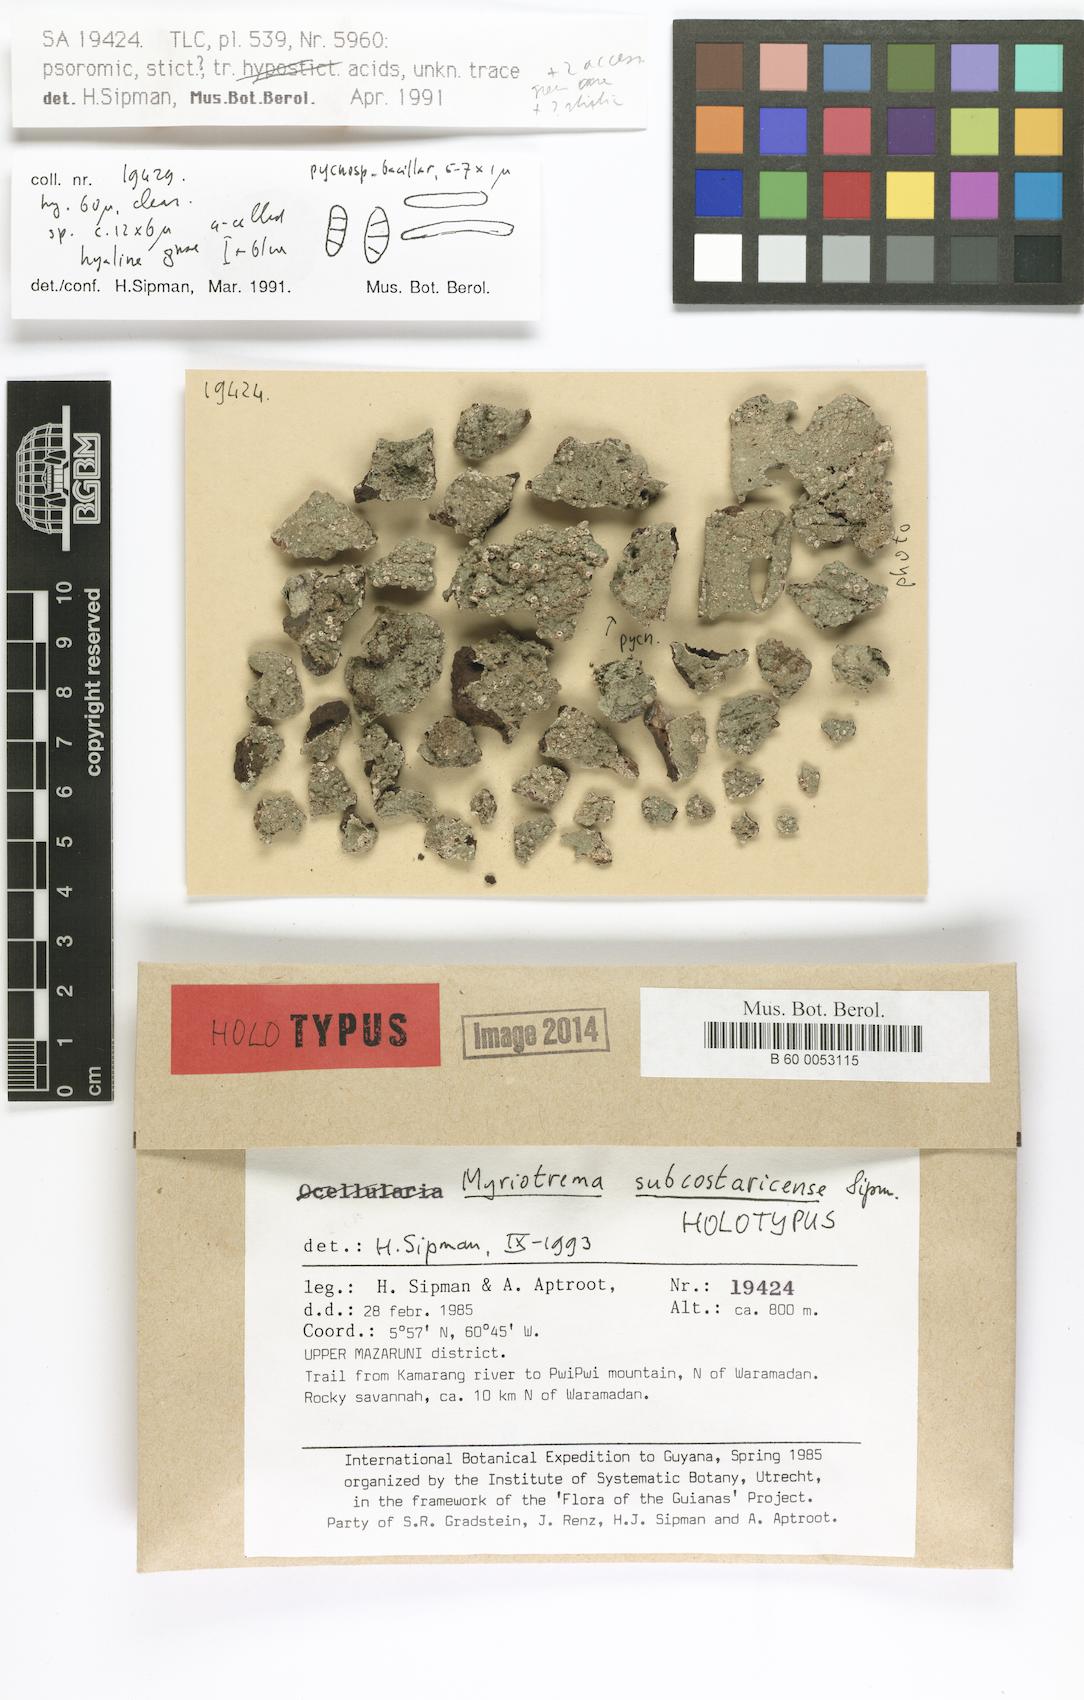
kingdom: Fungi
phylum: Ascomycota
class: Lecanoromycetes
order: Ostropales
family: Graphidaceae
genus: Myriotrema
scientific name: Myriotrema subcostaricense
